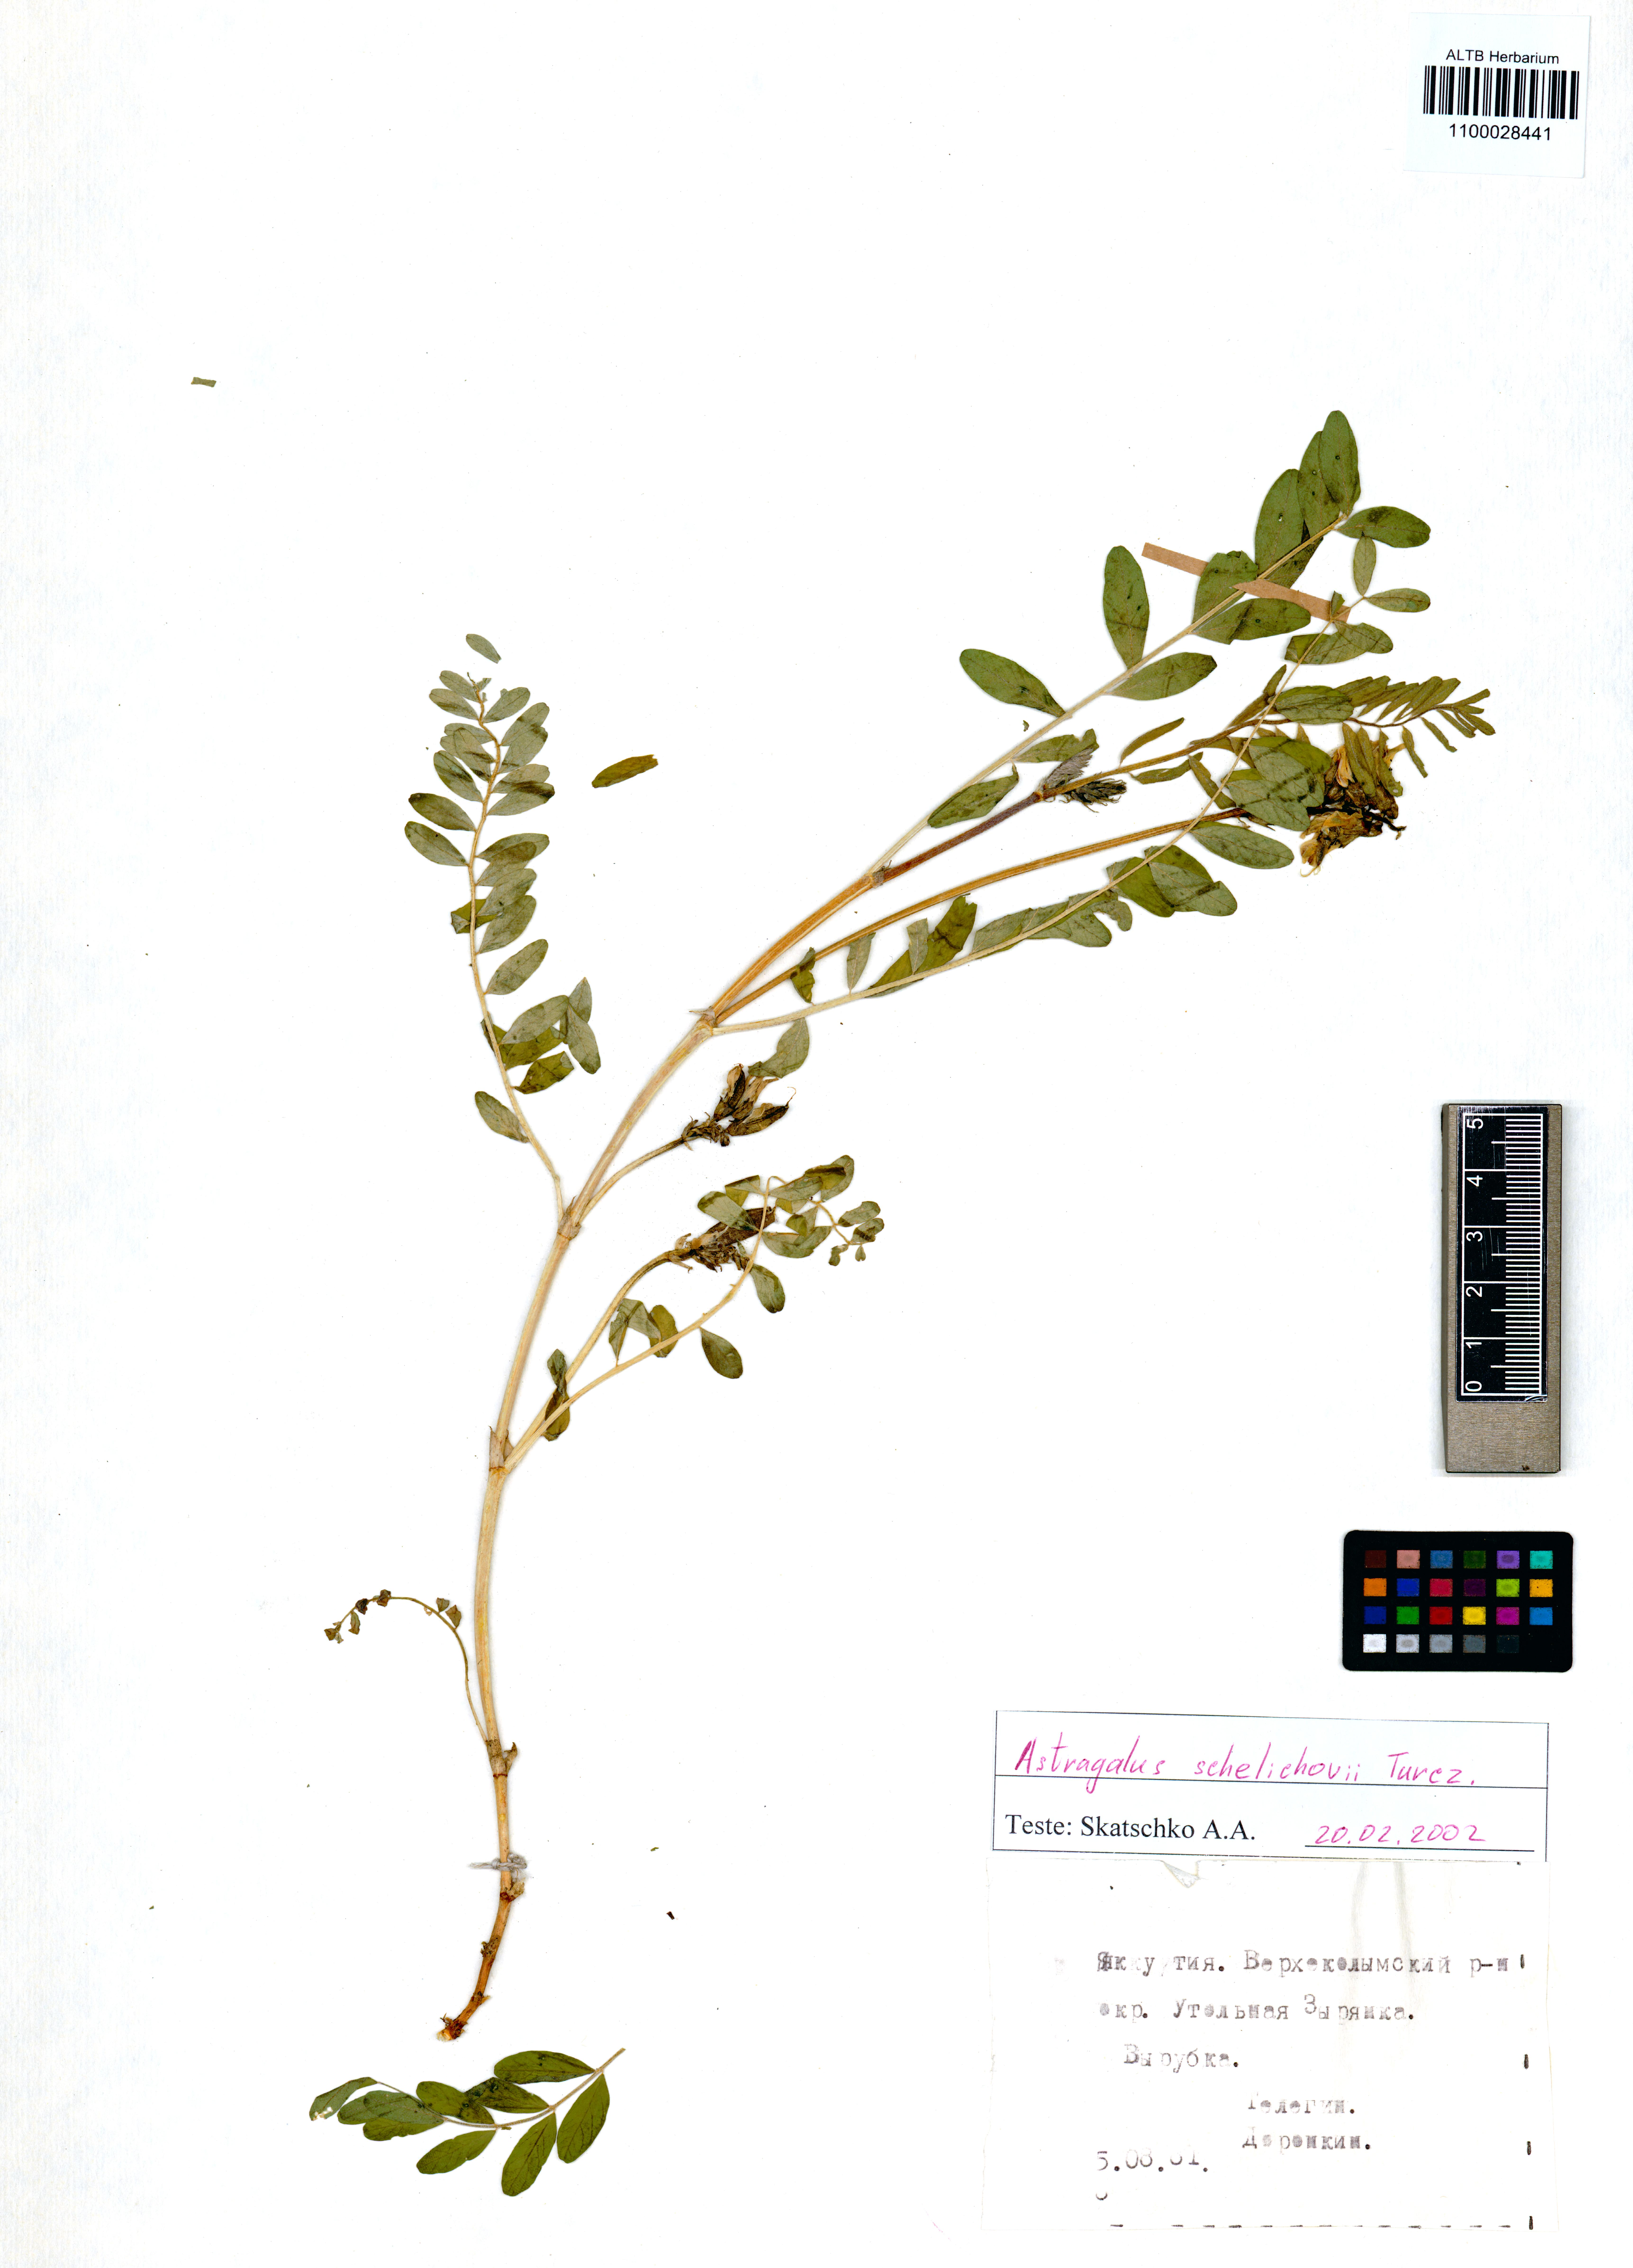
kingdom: Plantae
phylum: Tracheophyta
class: Magnoliopsida
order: Fabales
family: Fabaceae
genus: Astragalus
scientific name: Astragalus schelichowii
